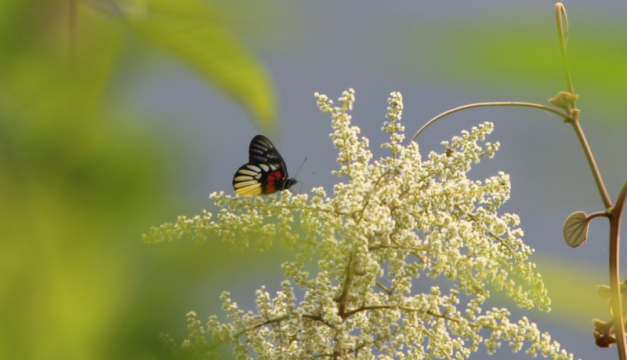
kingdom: Animalia
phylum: Arthropoda
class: Insecta
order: Lepidoptera
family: Pieridae
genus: Delias
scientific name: Delias pasithoe
